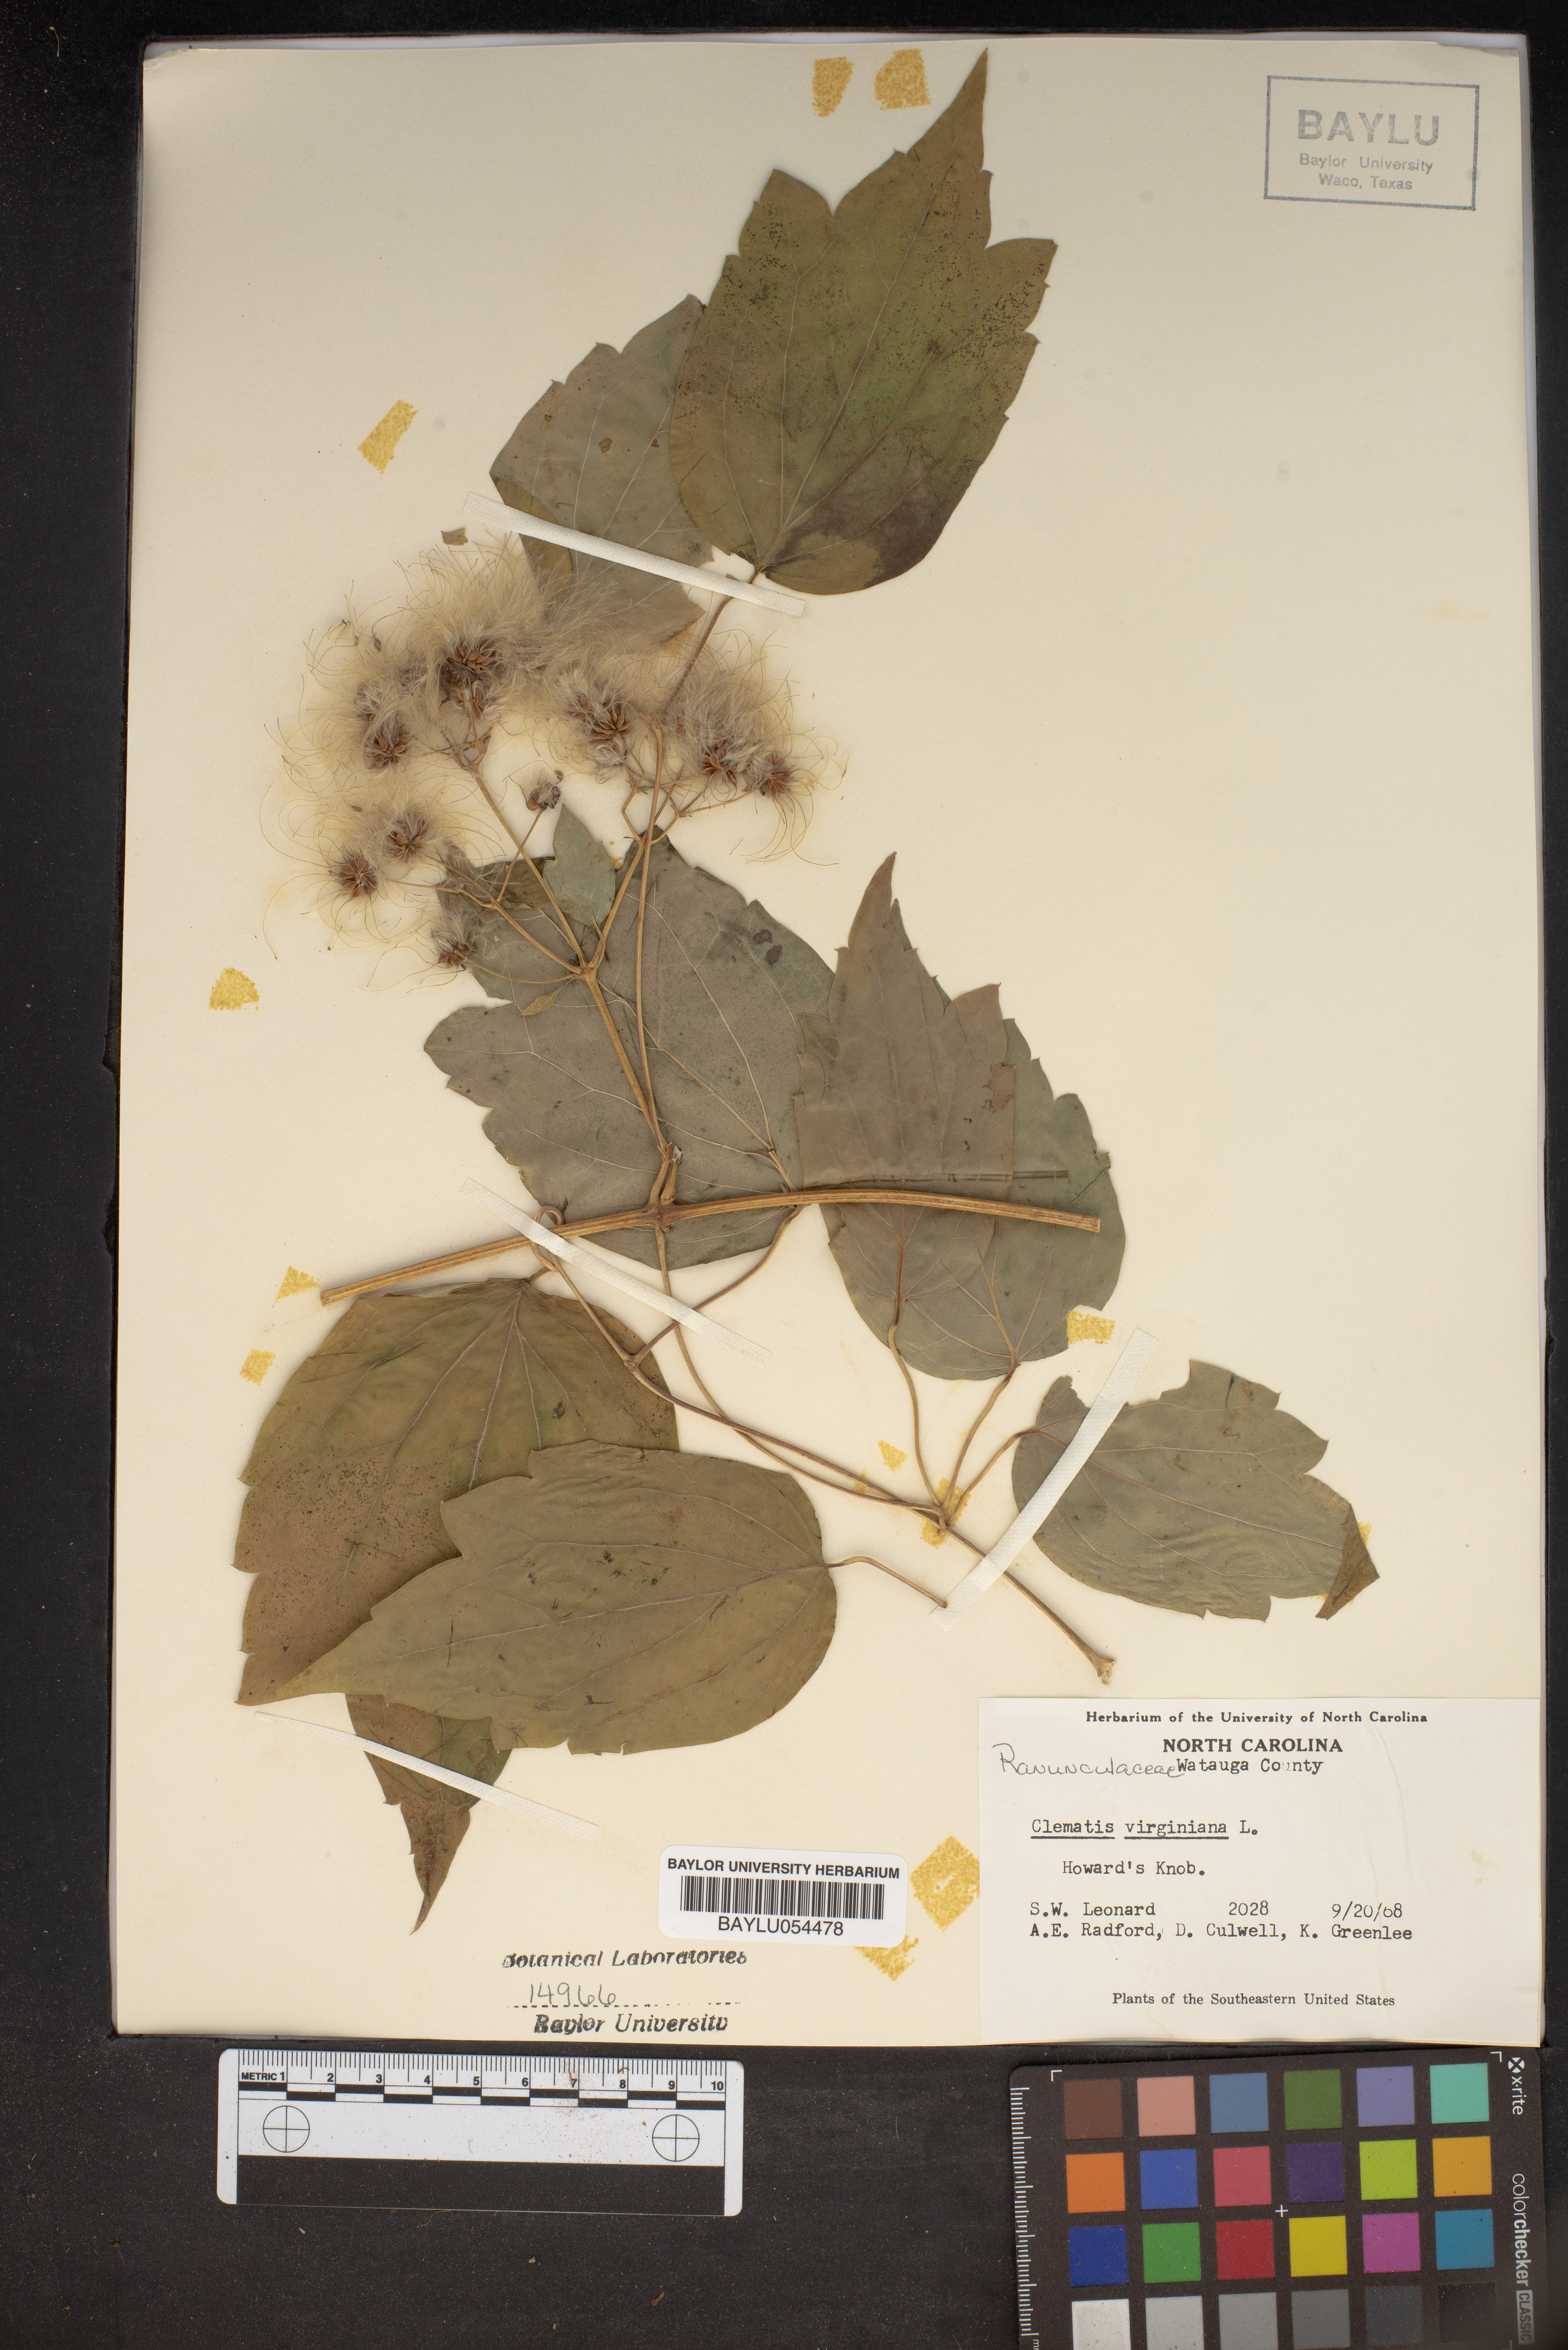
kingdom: Plantae
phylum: Tracheophyta
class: Magnoliopsida
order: Ranunculales
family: Ranunculaceae
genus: Clematis
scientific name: Clematis virginiana
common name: Virgin's-bower
